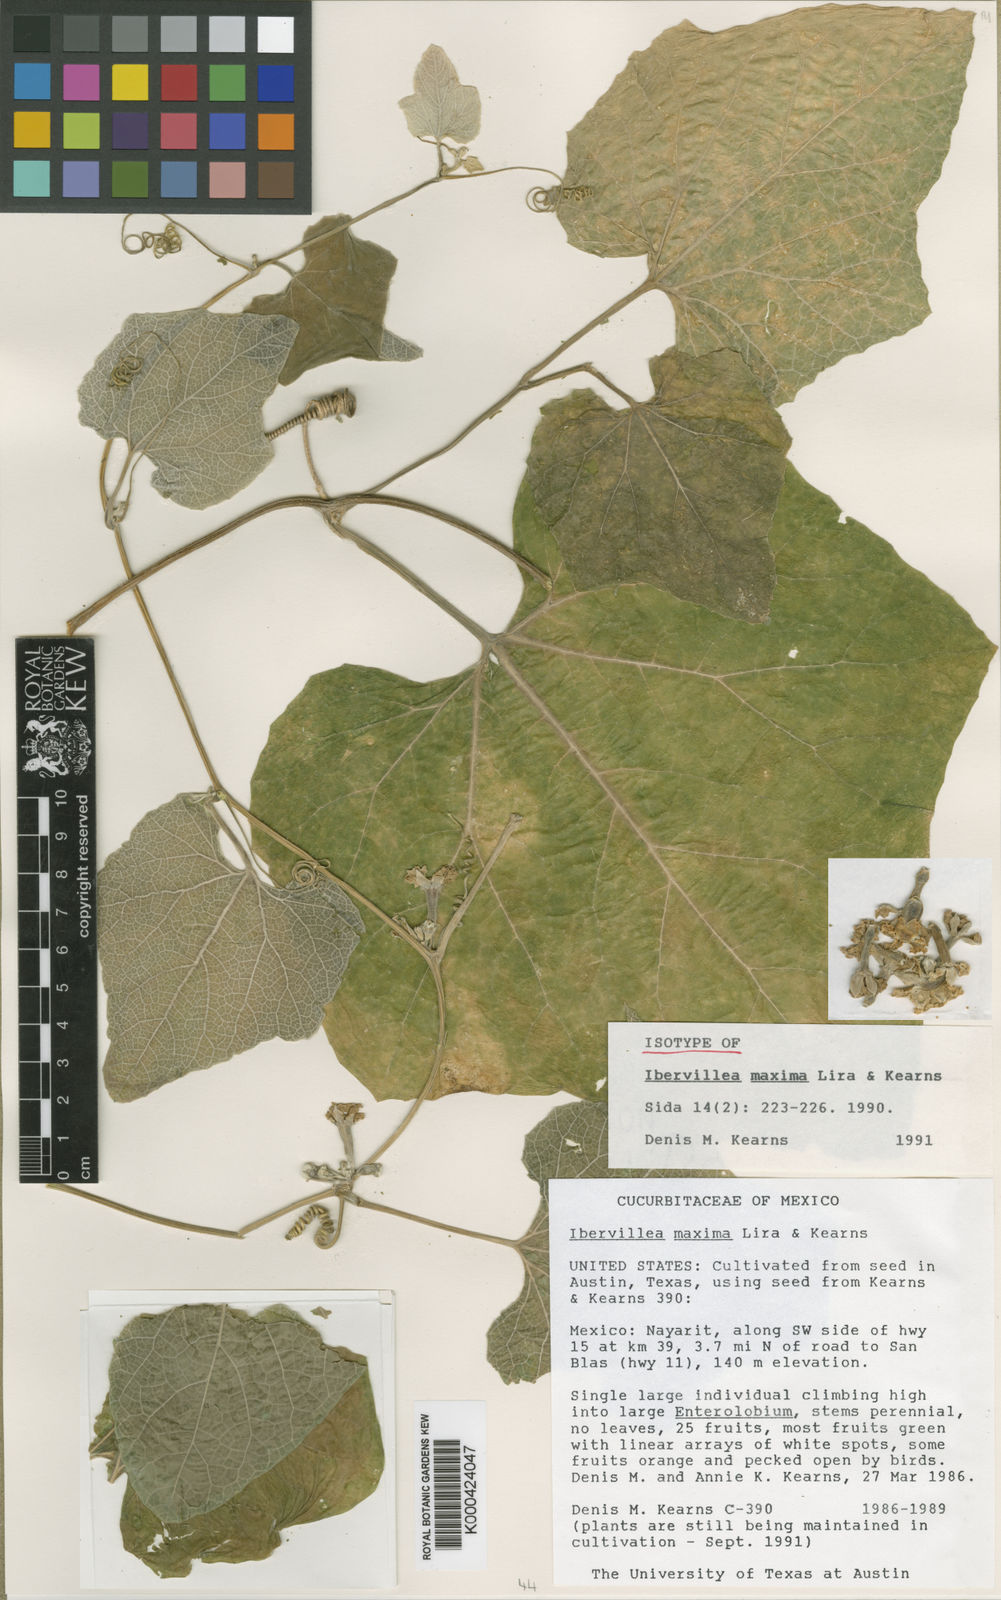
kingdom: Plantae
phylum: Tracheophyta
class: Magnoliopsida
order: Cucurbitales
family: Cucurbitaceae
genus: Ibervillea
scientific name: Ibervillea maxima
